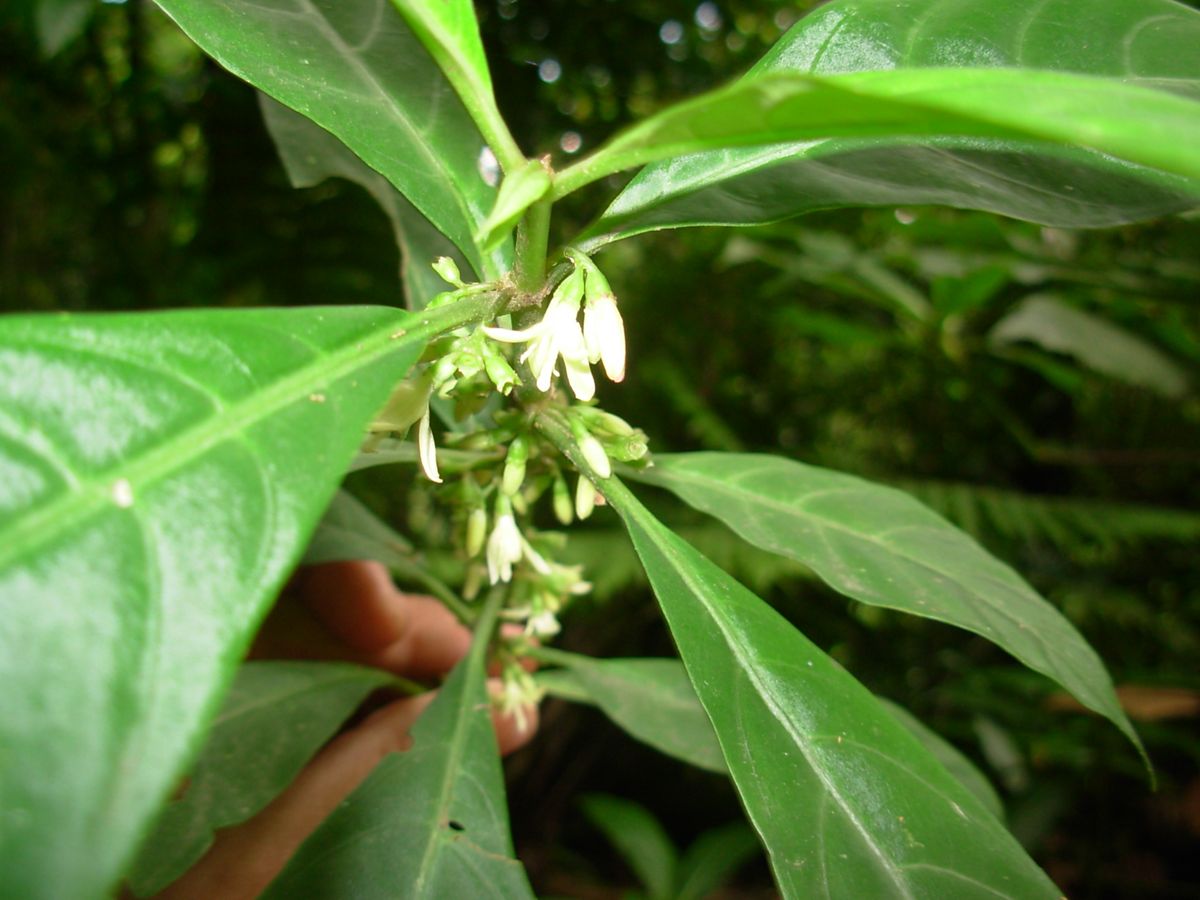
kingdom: Plantae
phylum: Tracheophyta
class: Magnoliopsida
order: Gentianales
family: Rubiaceae
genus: Hoffmannia
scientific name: Hoffmannia nicotianifolia
